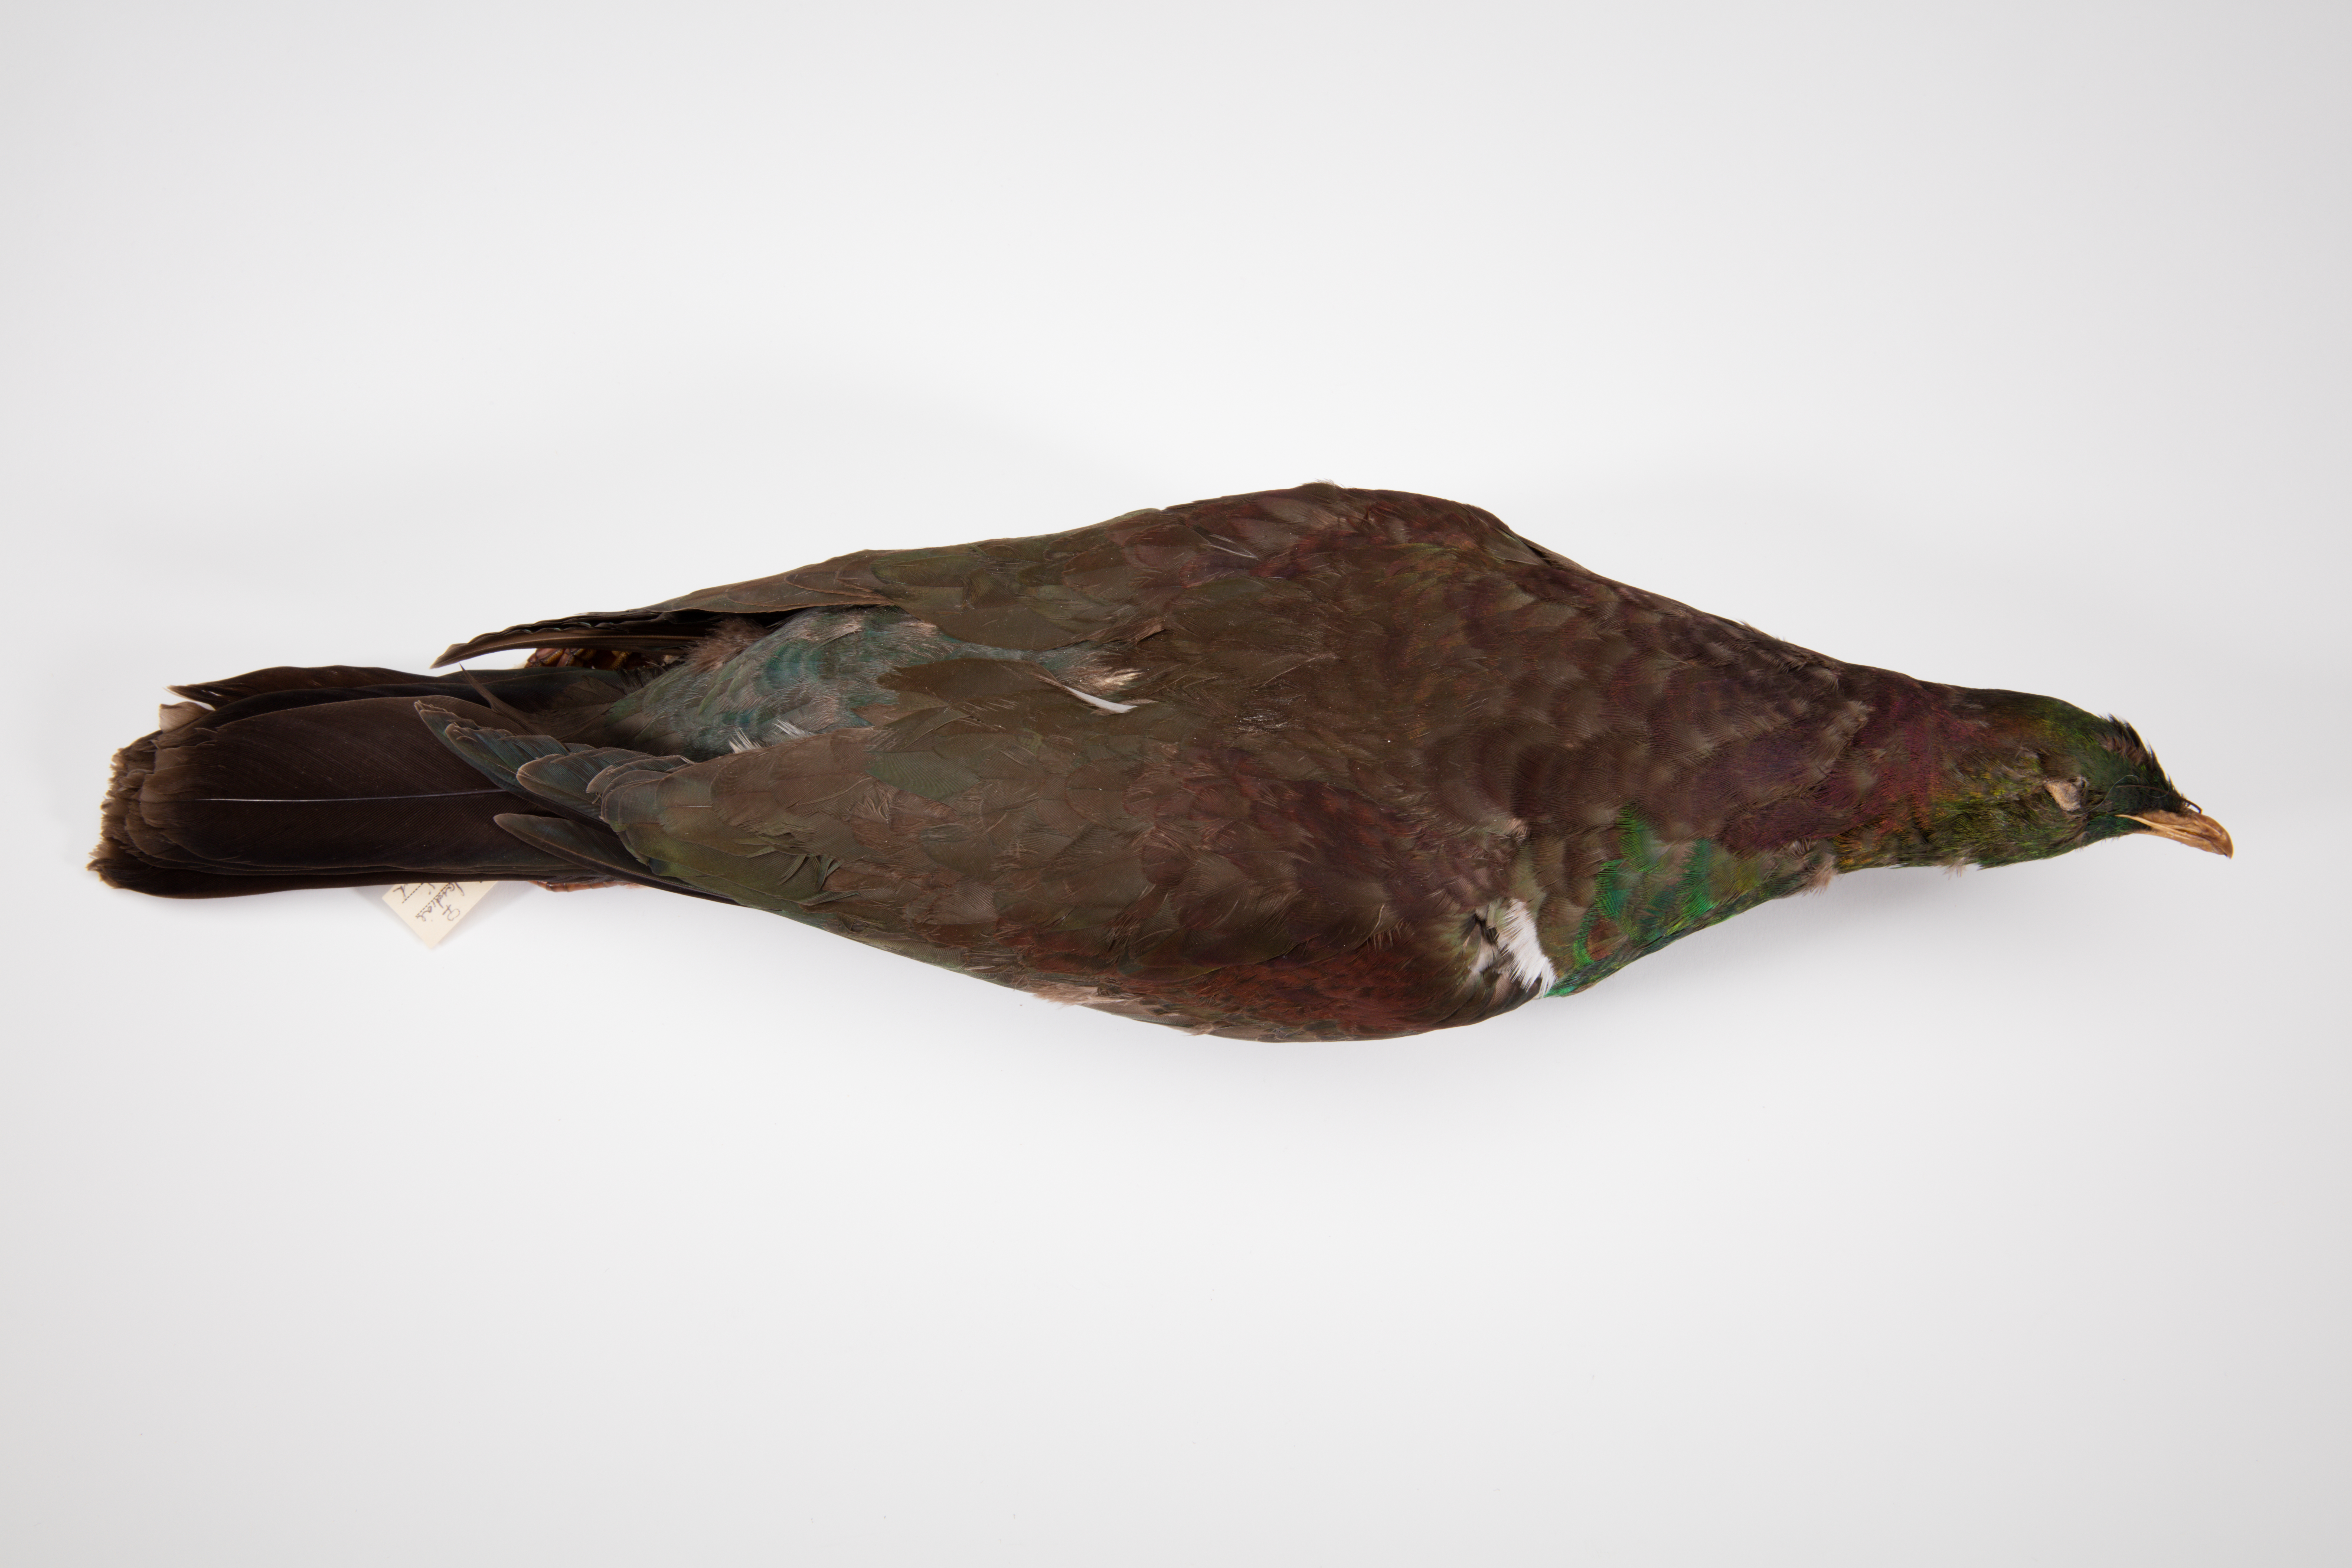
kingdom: Animalia
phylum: Chordata
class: Aves
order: Columbiformes
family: Columbidae
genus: Hemiphaga
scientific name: Hemiphaga novaeseelandiae
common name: New zealand pigeon
